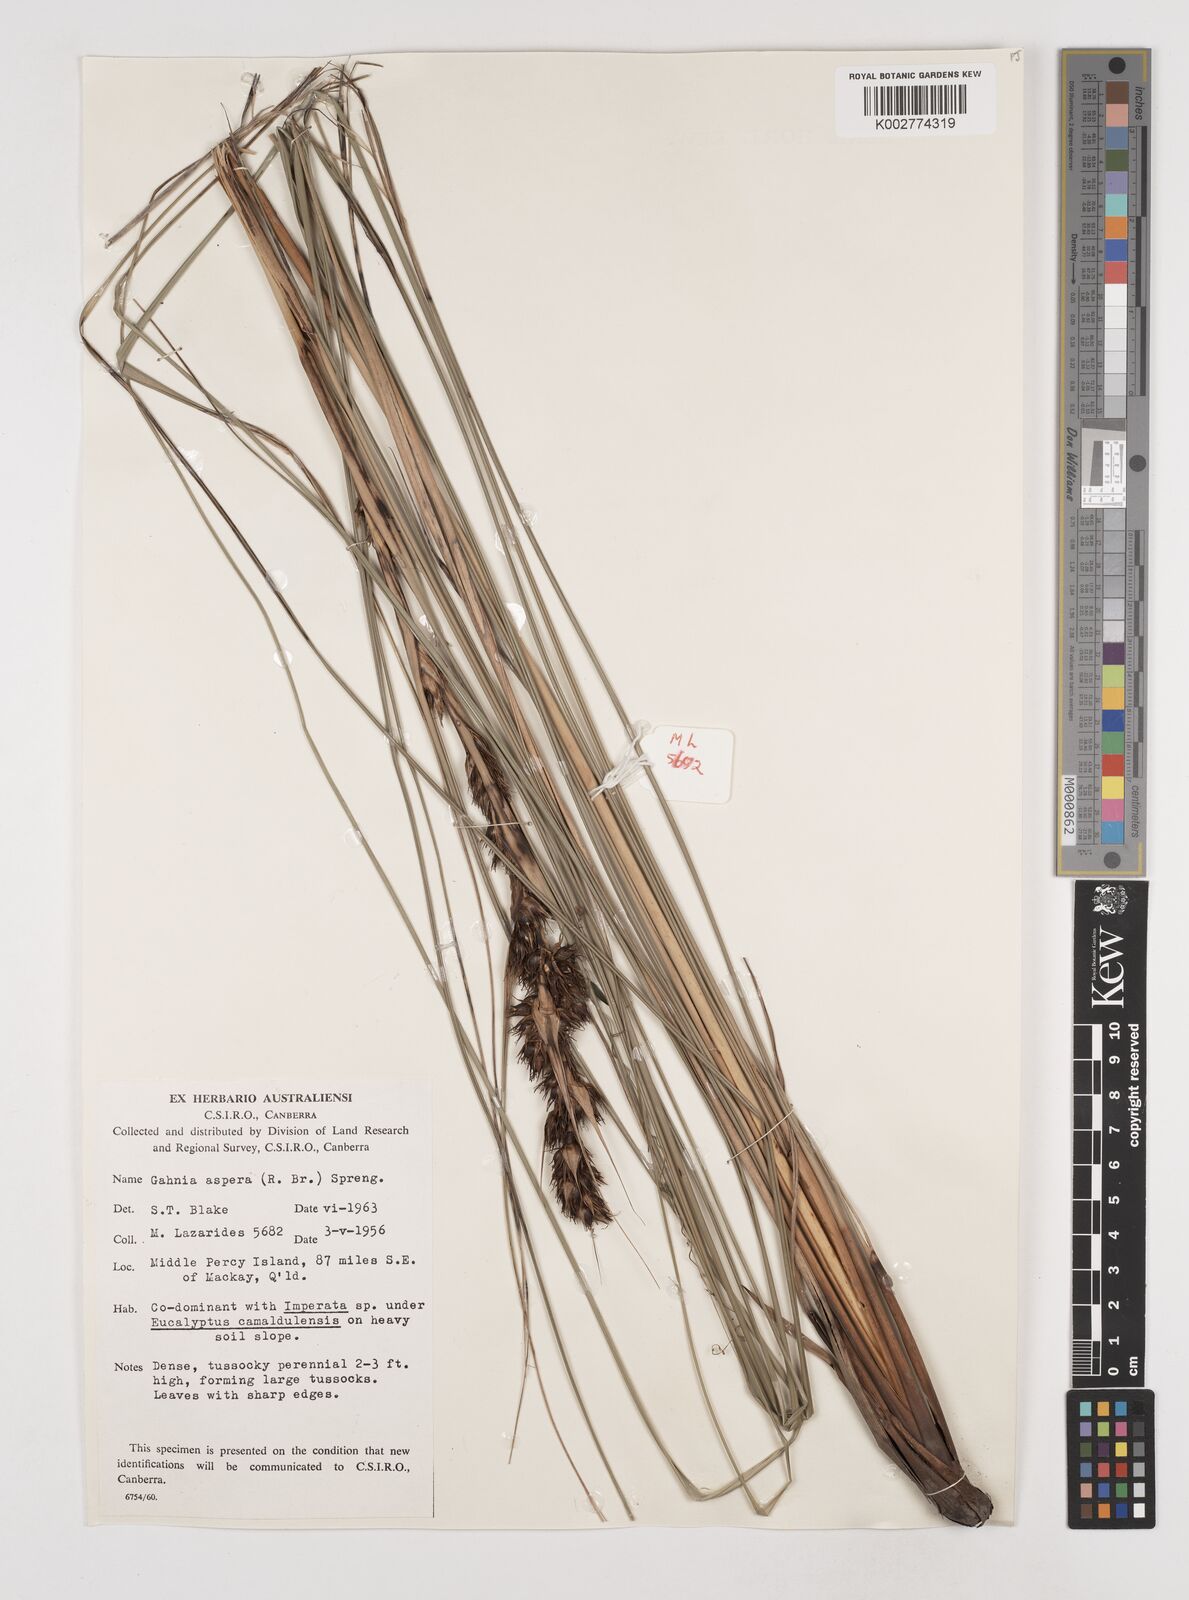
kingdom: Plantae
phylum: Tracheophyta
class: Liliopsida
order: Poales
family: Cyperaceae
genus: Gahnia
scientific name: Gahnia aspera
